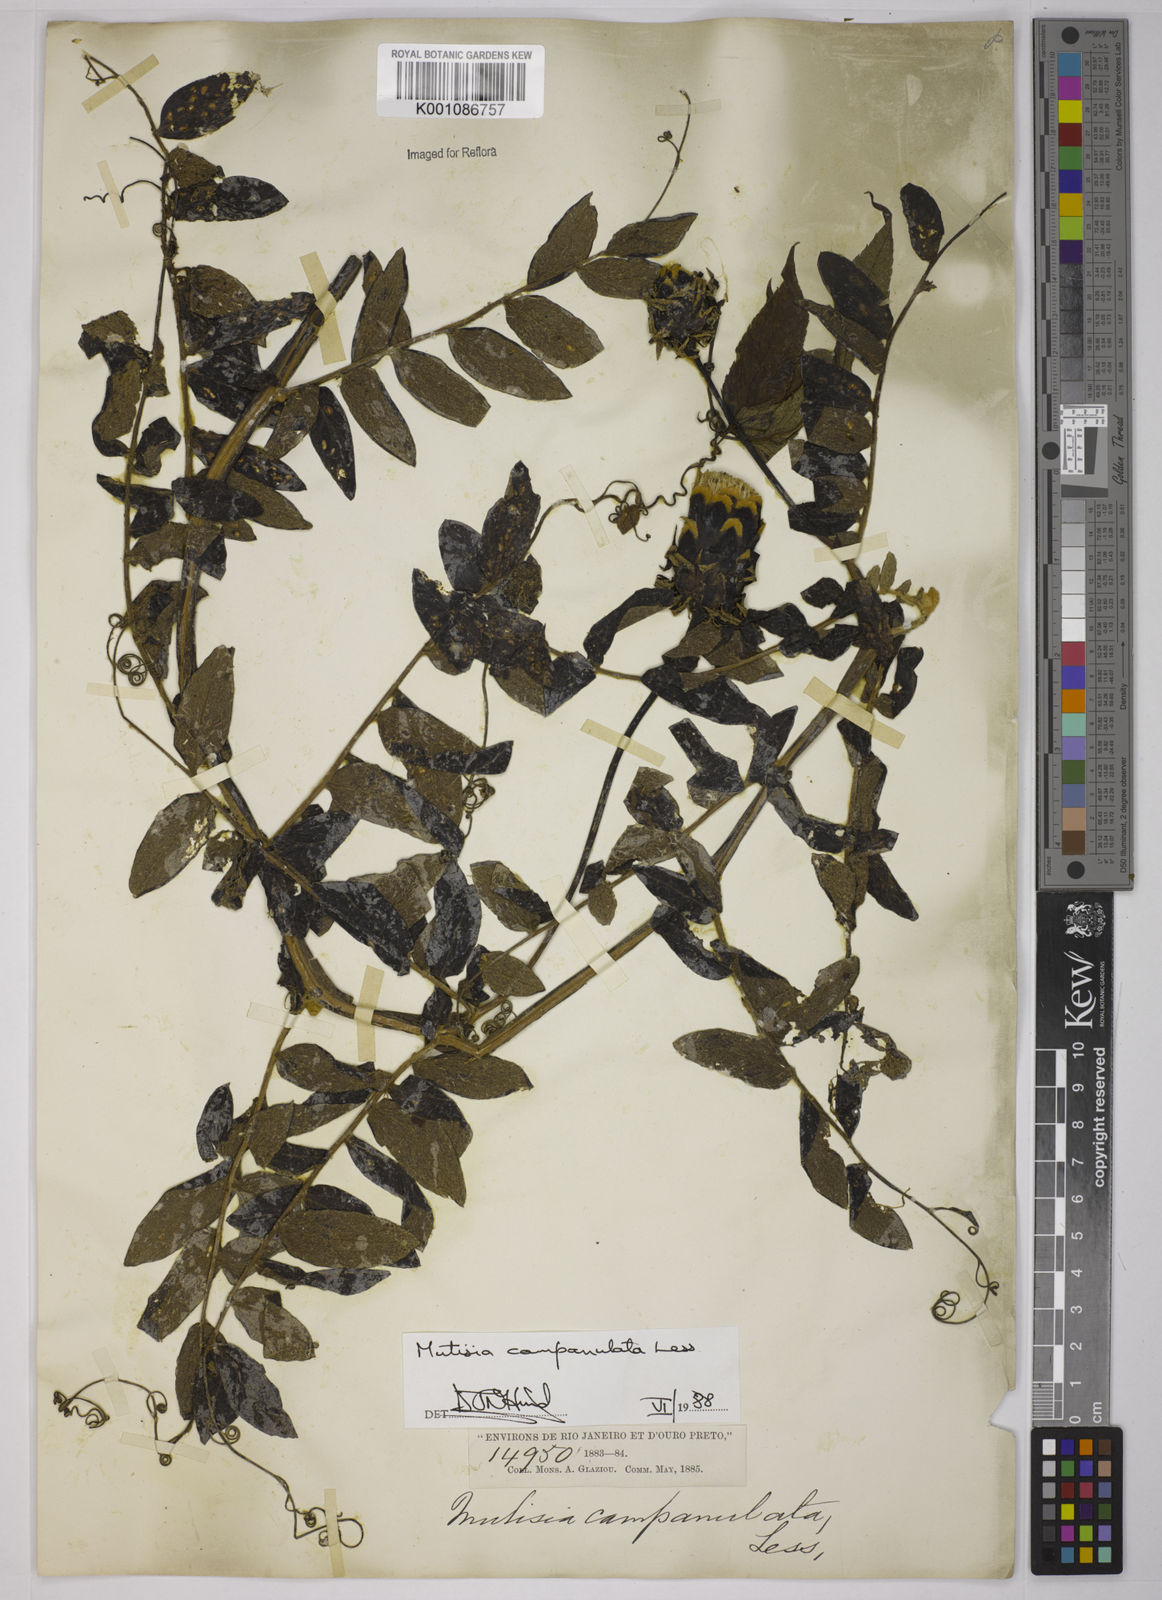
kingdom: Plantae
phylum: Tracheophyta
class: Magnoliopsida
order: Asterales
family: Asteraceae
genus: Mutisia
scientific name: Mutisia campanulata
